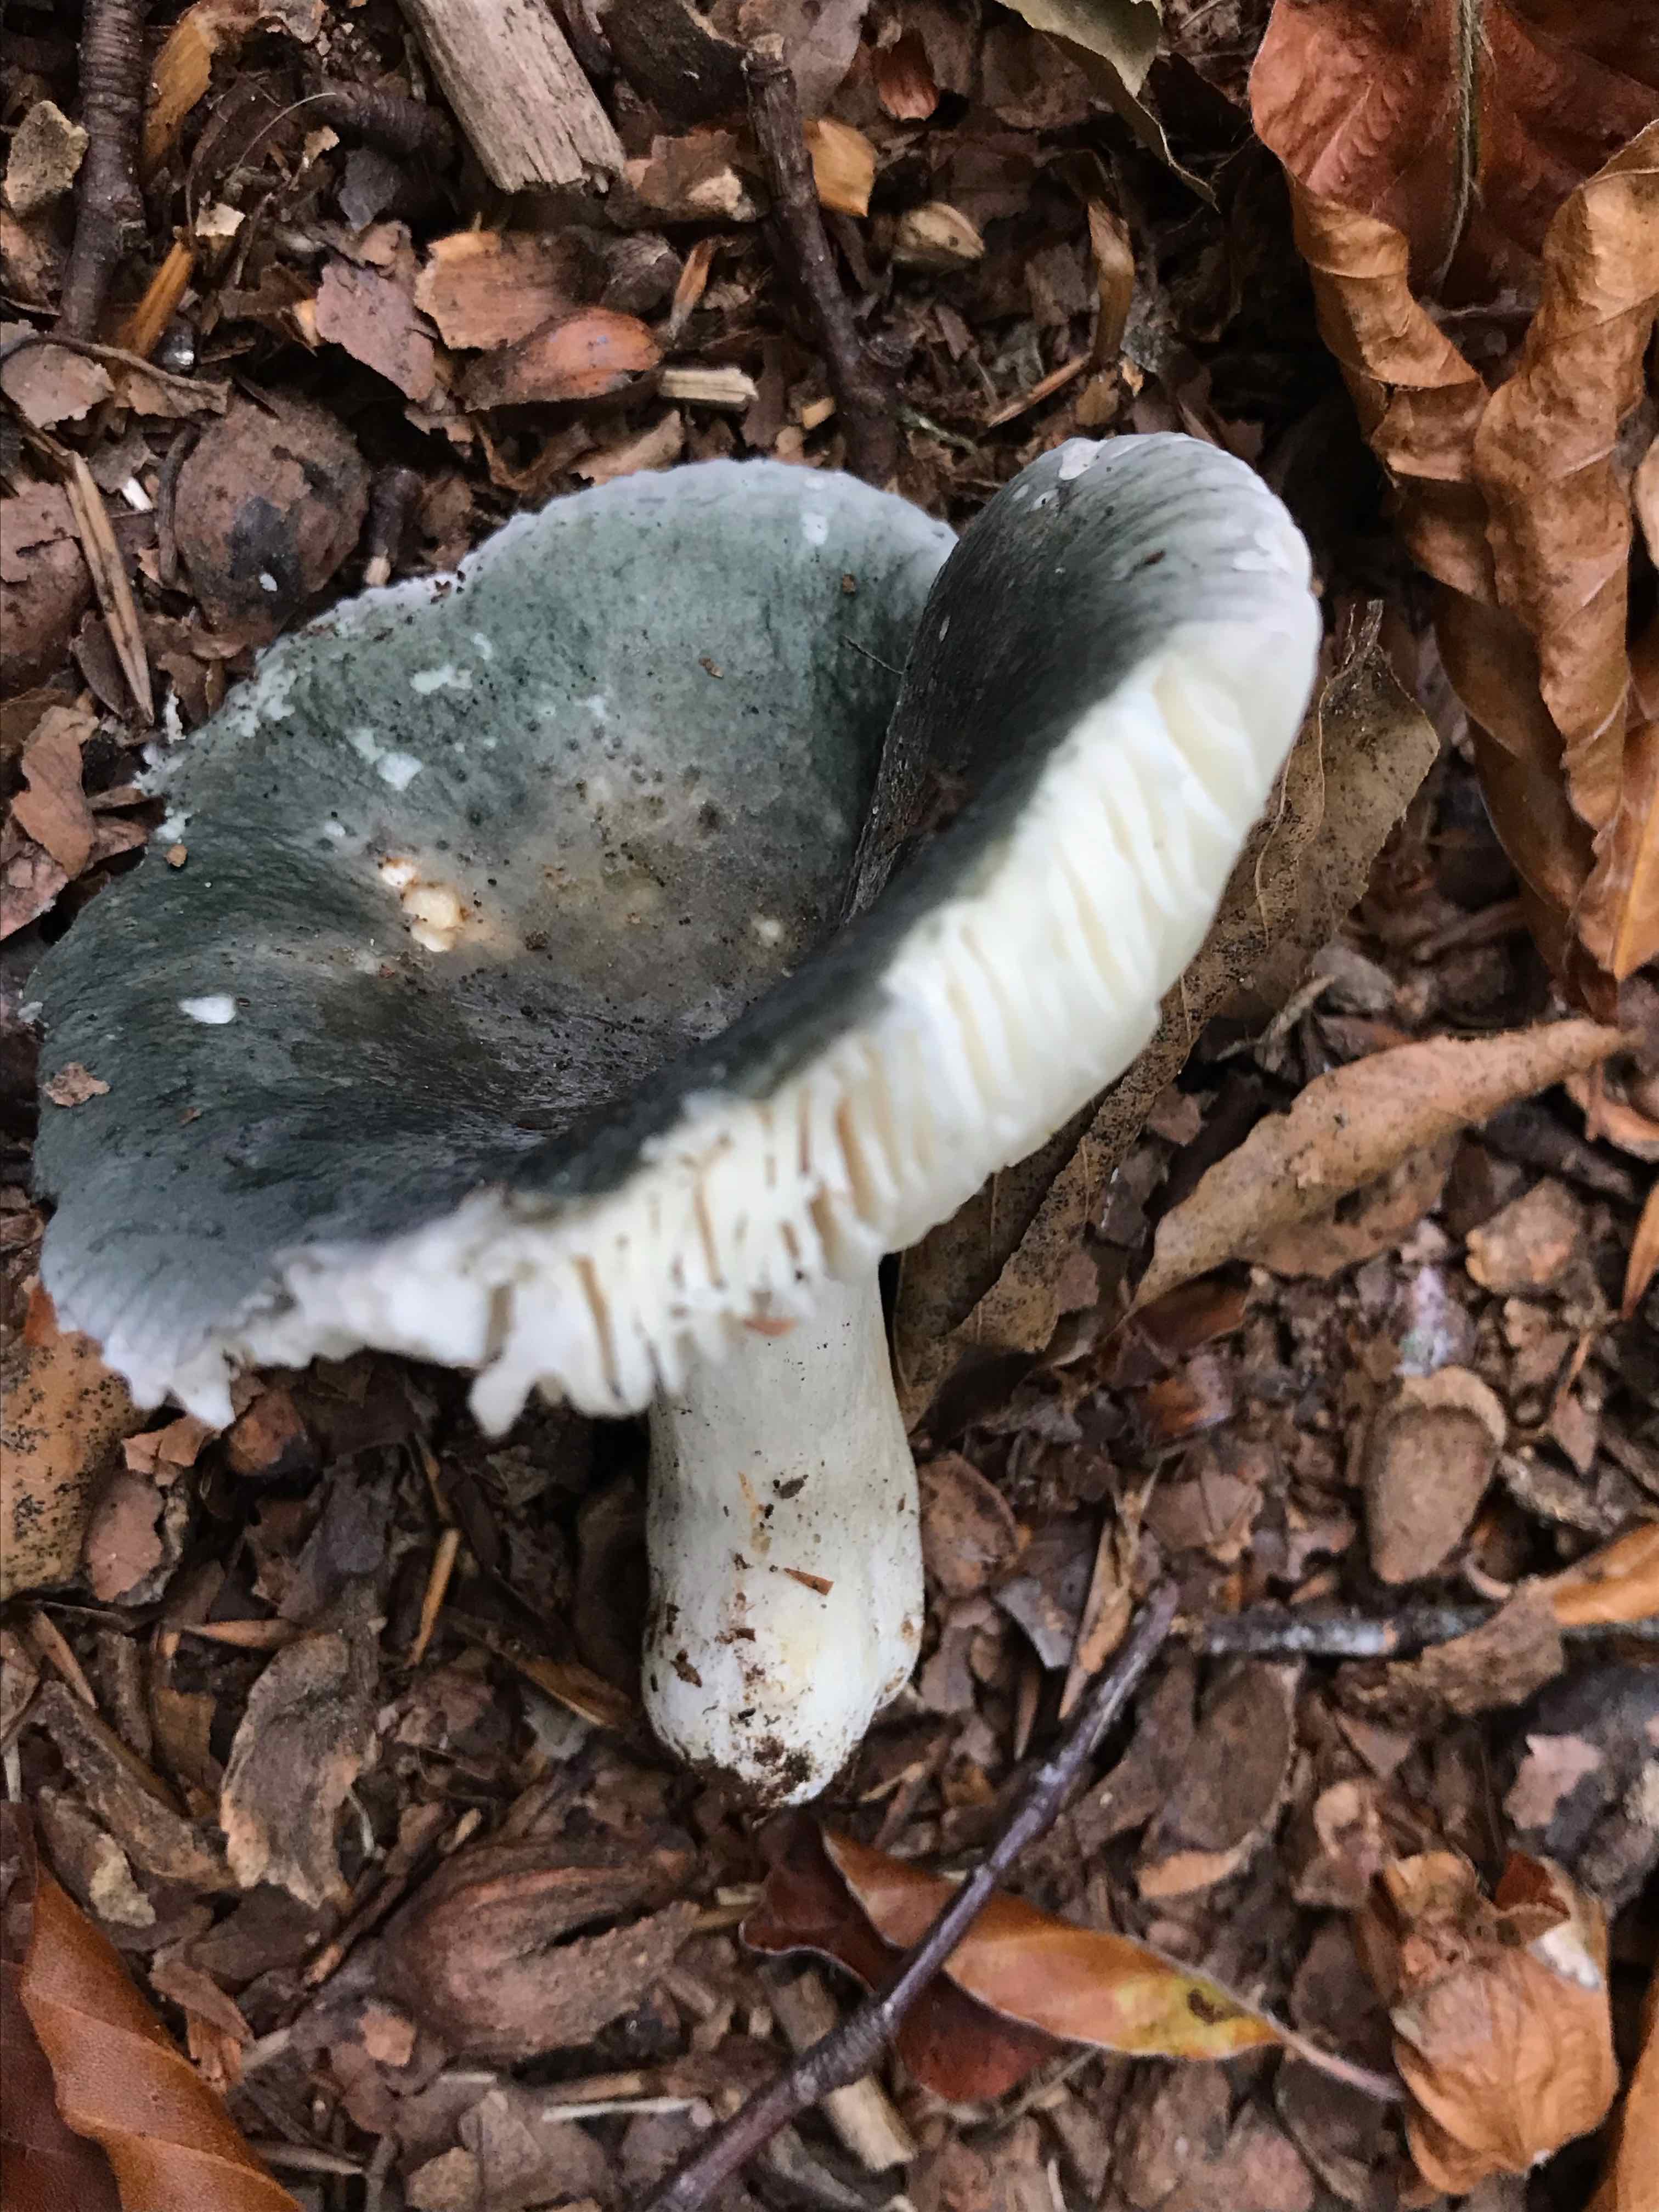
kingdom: Fungi
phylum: Basidiomycota
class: Agaricomycetes
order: Russulales
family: Russulaceae
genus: Russula
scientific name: Russula
